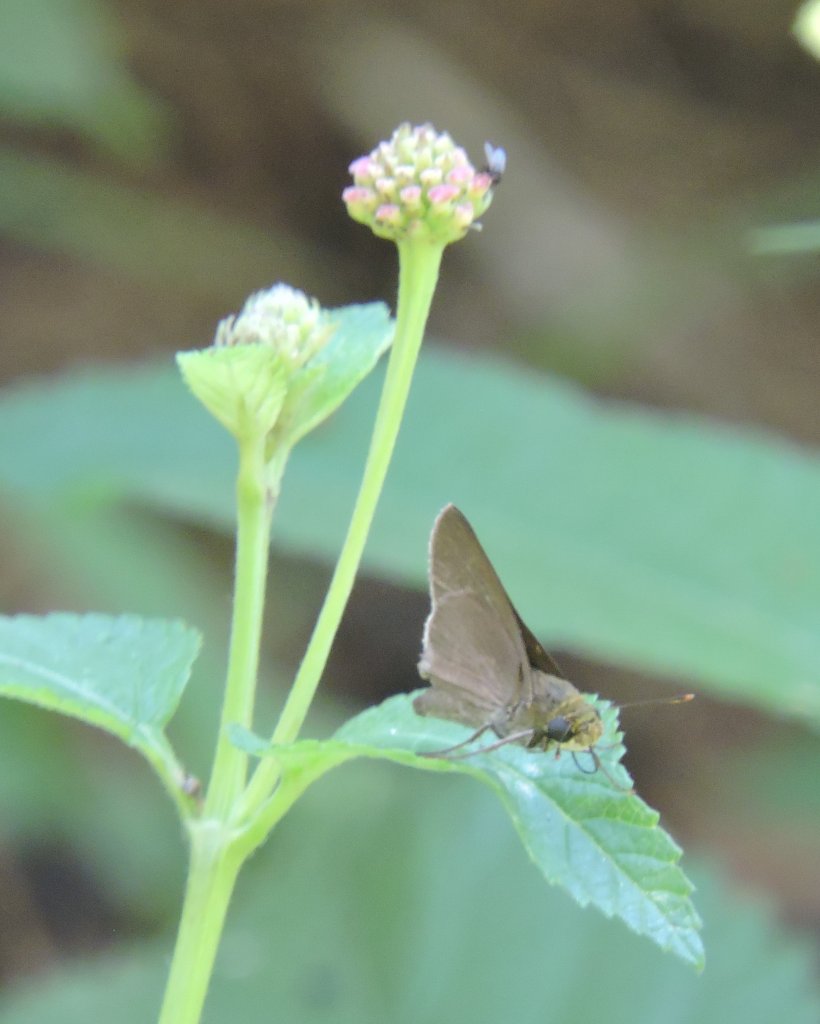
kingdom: Animalia
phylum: Arthropoda
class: Insecta
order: Lepidoptera
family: Hesperiidae
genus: Euphyes
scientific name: Euphyes vestris
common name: Dun Skipper
